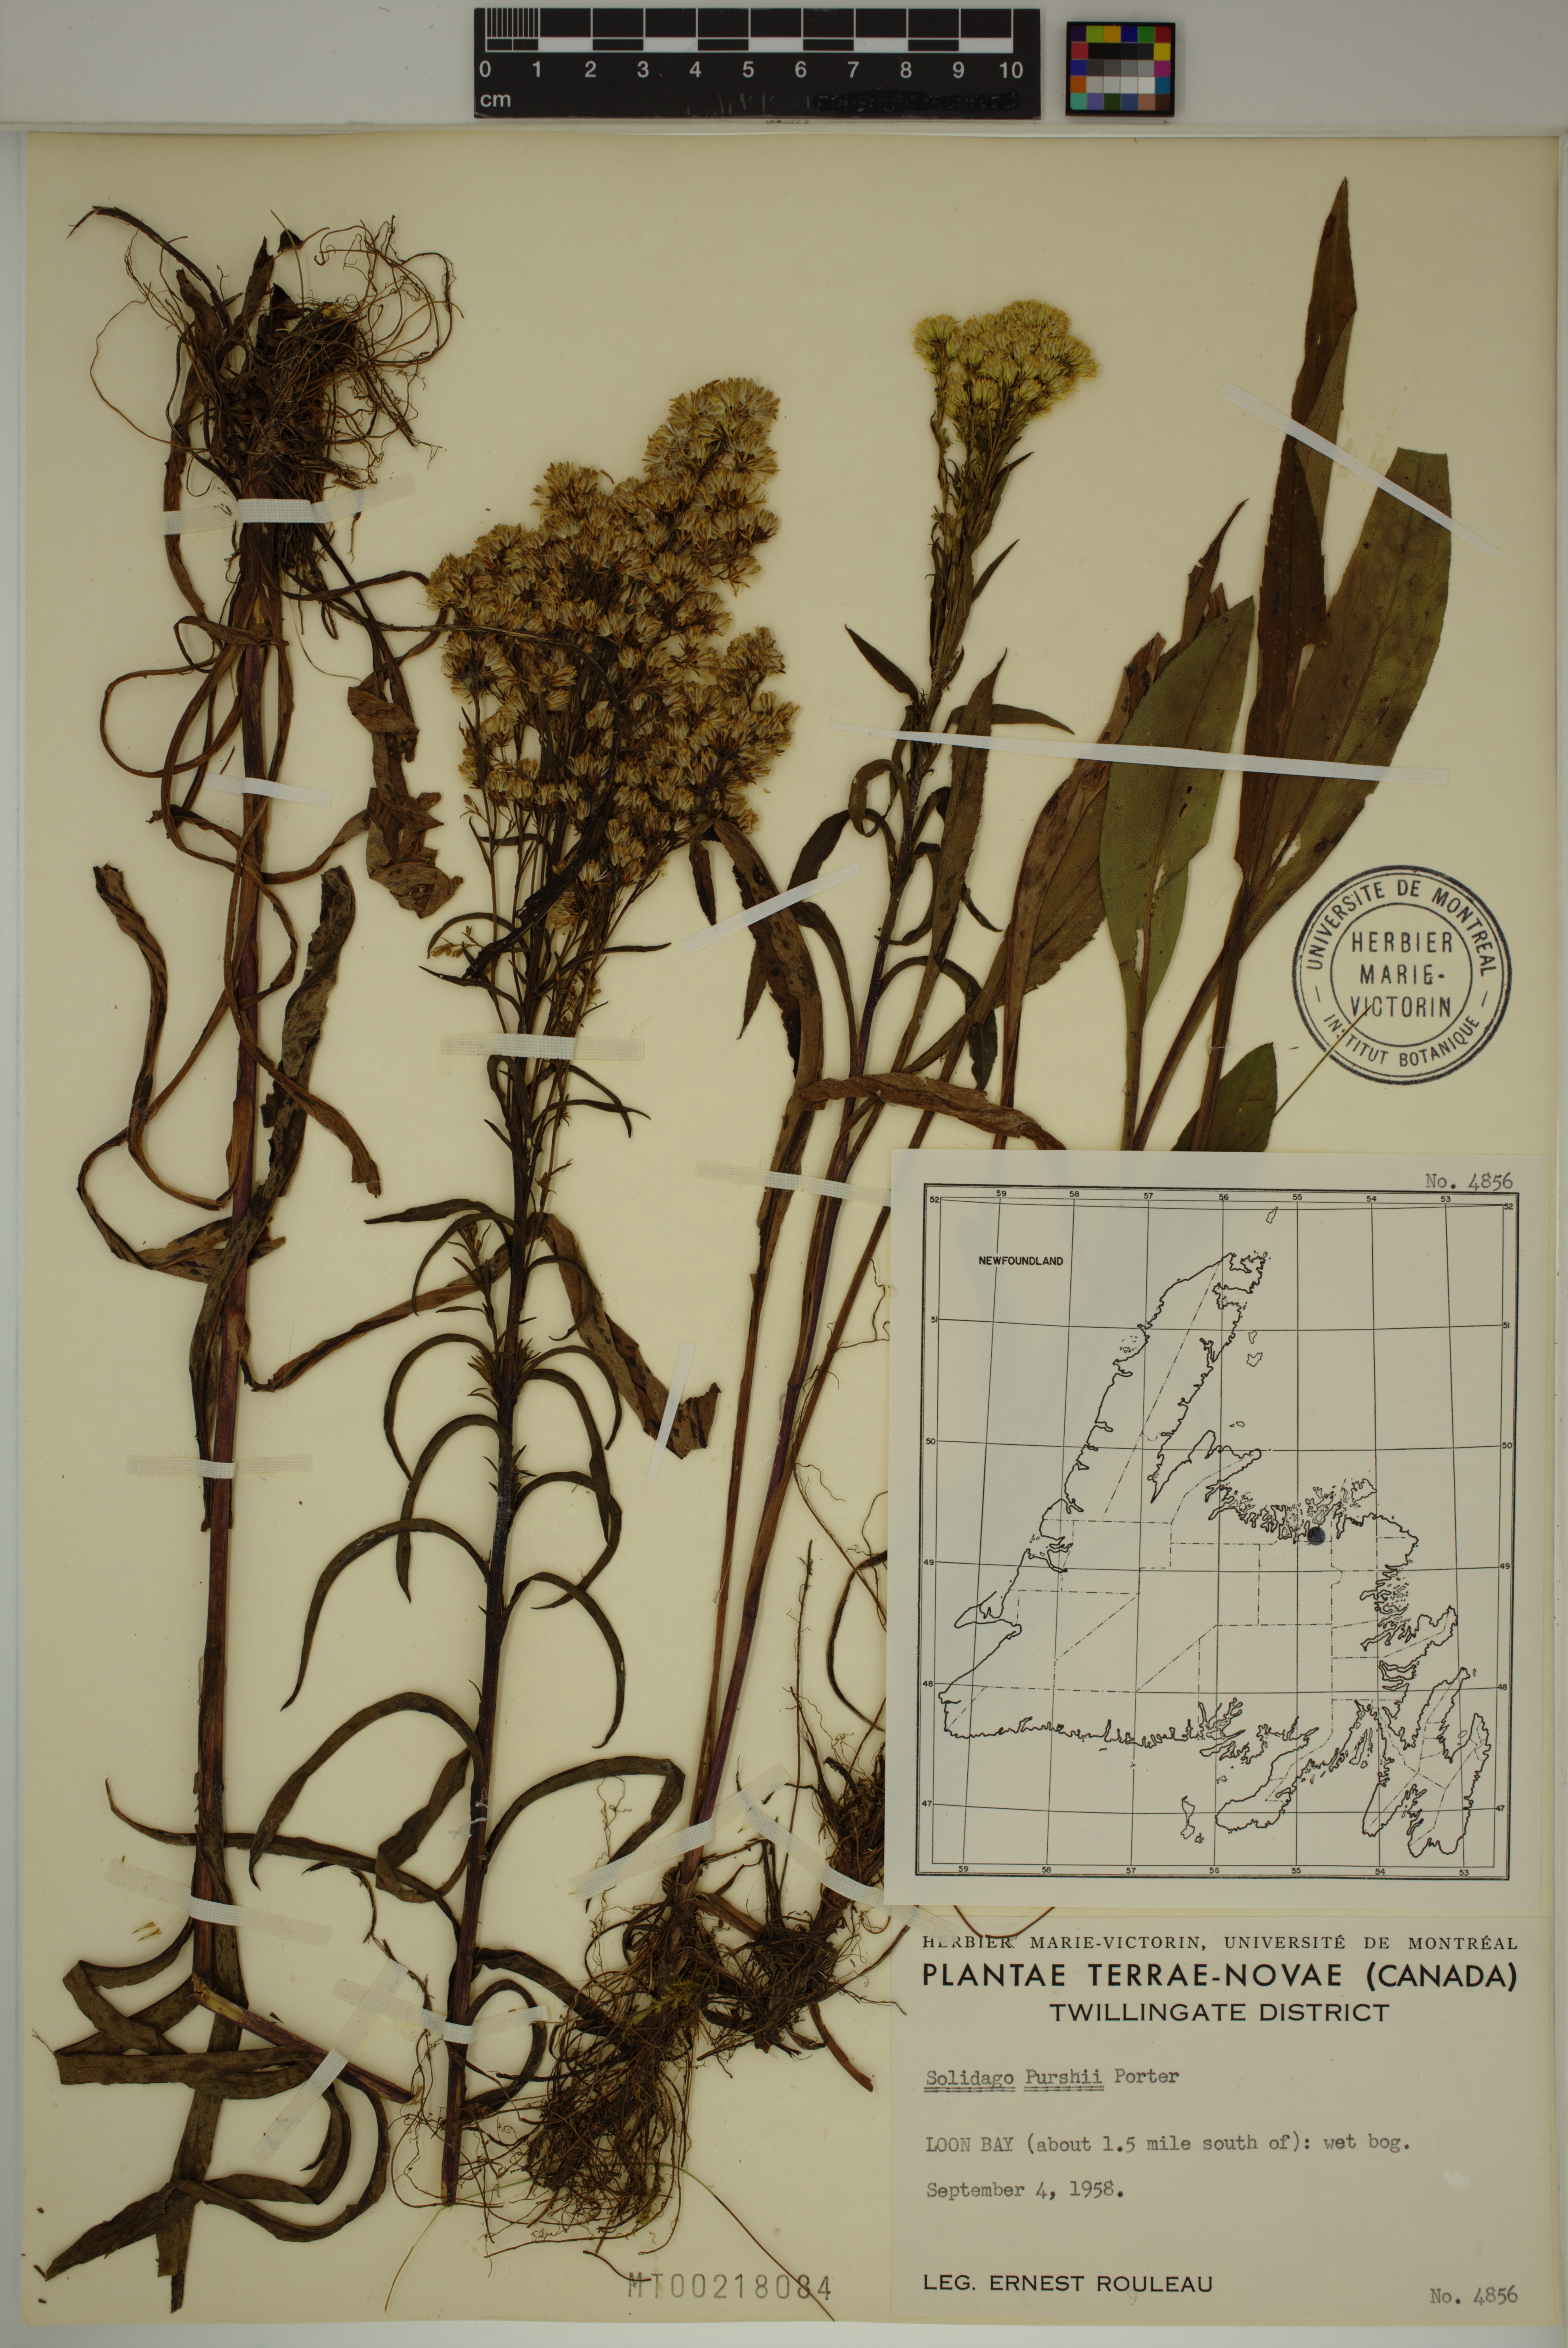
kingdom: Plantae
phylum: Tracheophyta
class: Magnoliopsida
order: Asterales
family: Asteraceae
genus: Solidago
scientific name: Solidago uliginosa
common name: Bog goldenrod
